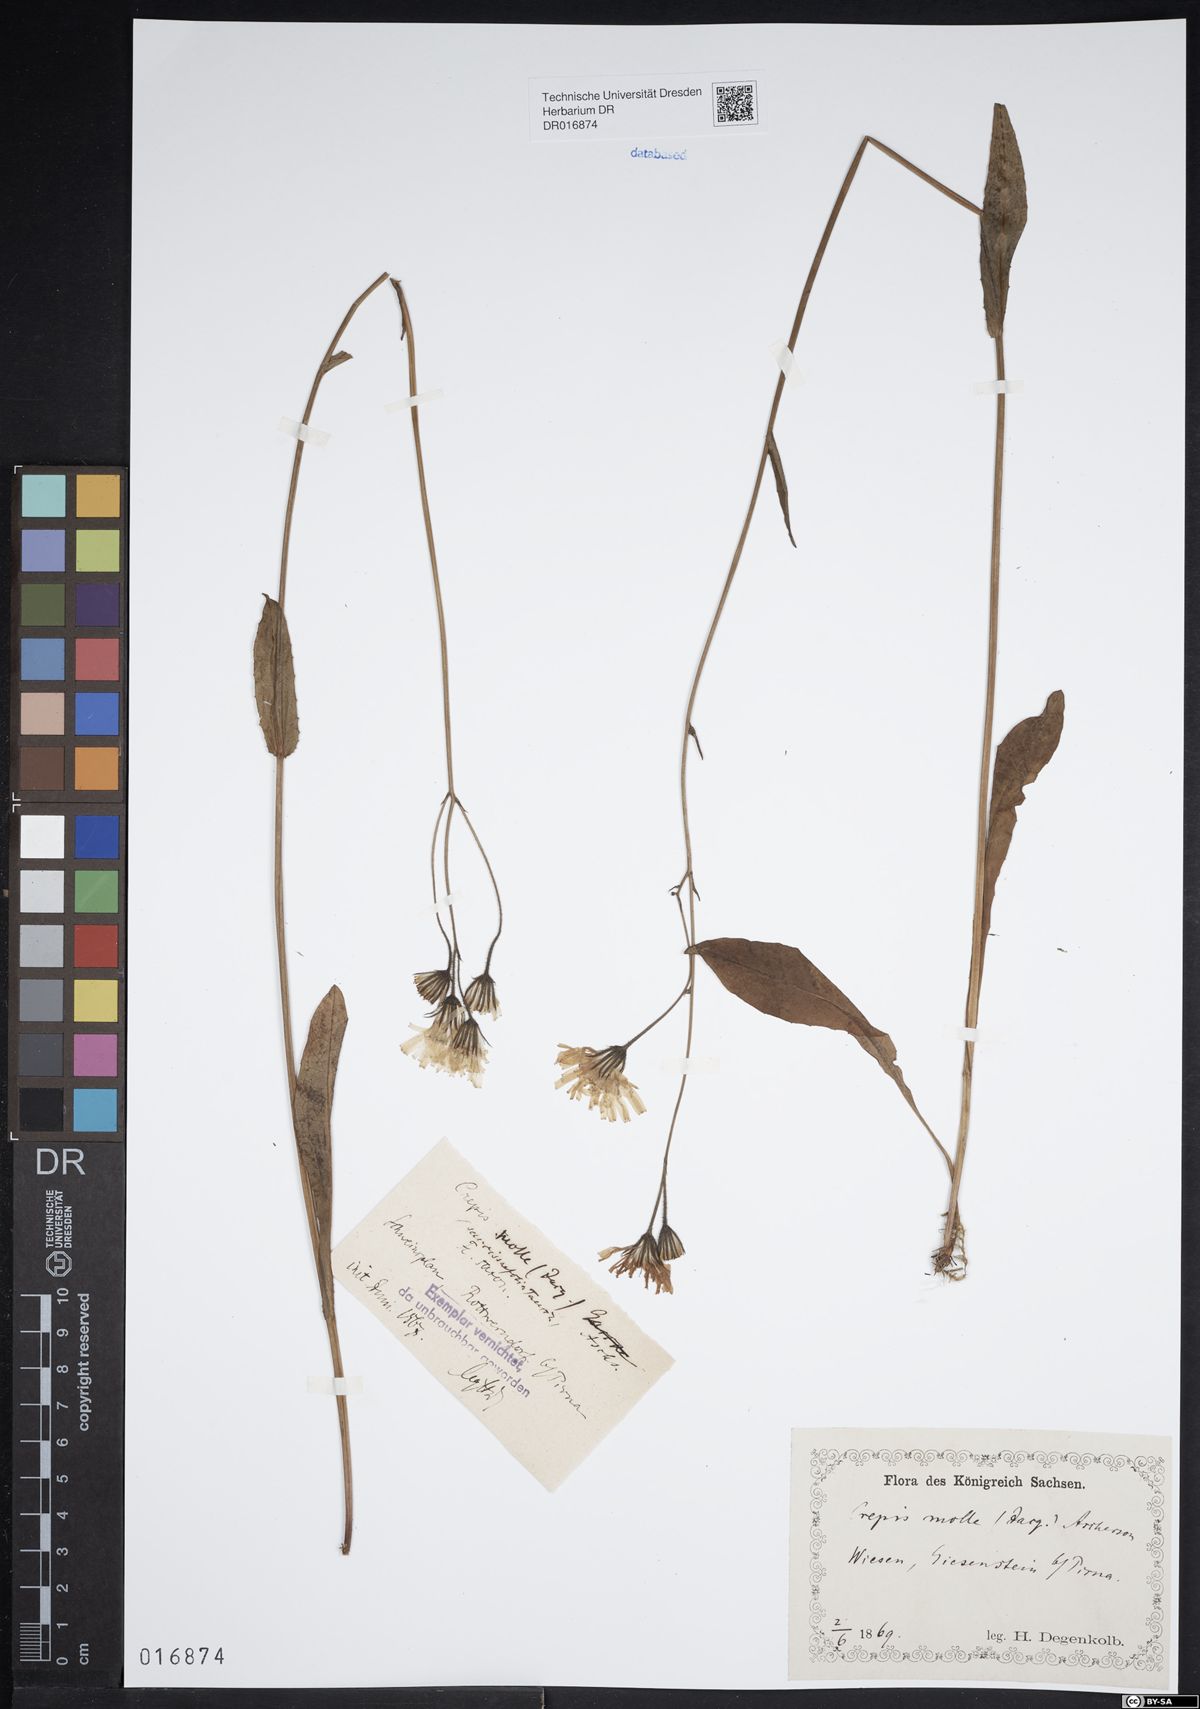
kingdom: Plantae
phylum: Tracheophyta
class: Magnoliopsida
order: Asterales
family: Asteraceae
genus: Crepis
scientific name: Crepis mollis
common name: Northern hawk's-beard
